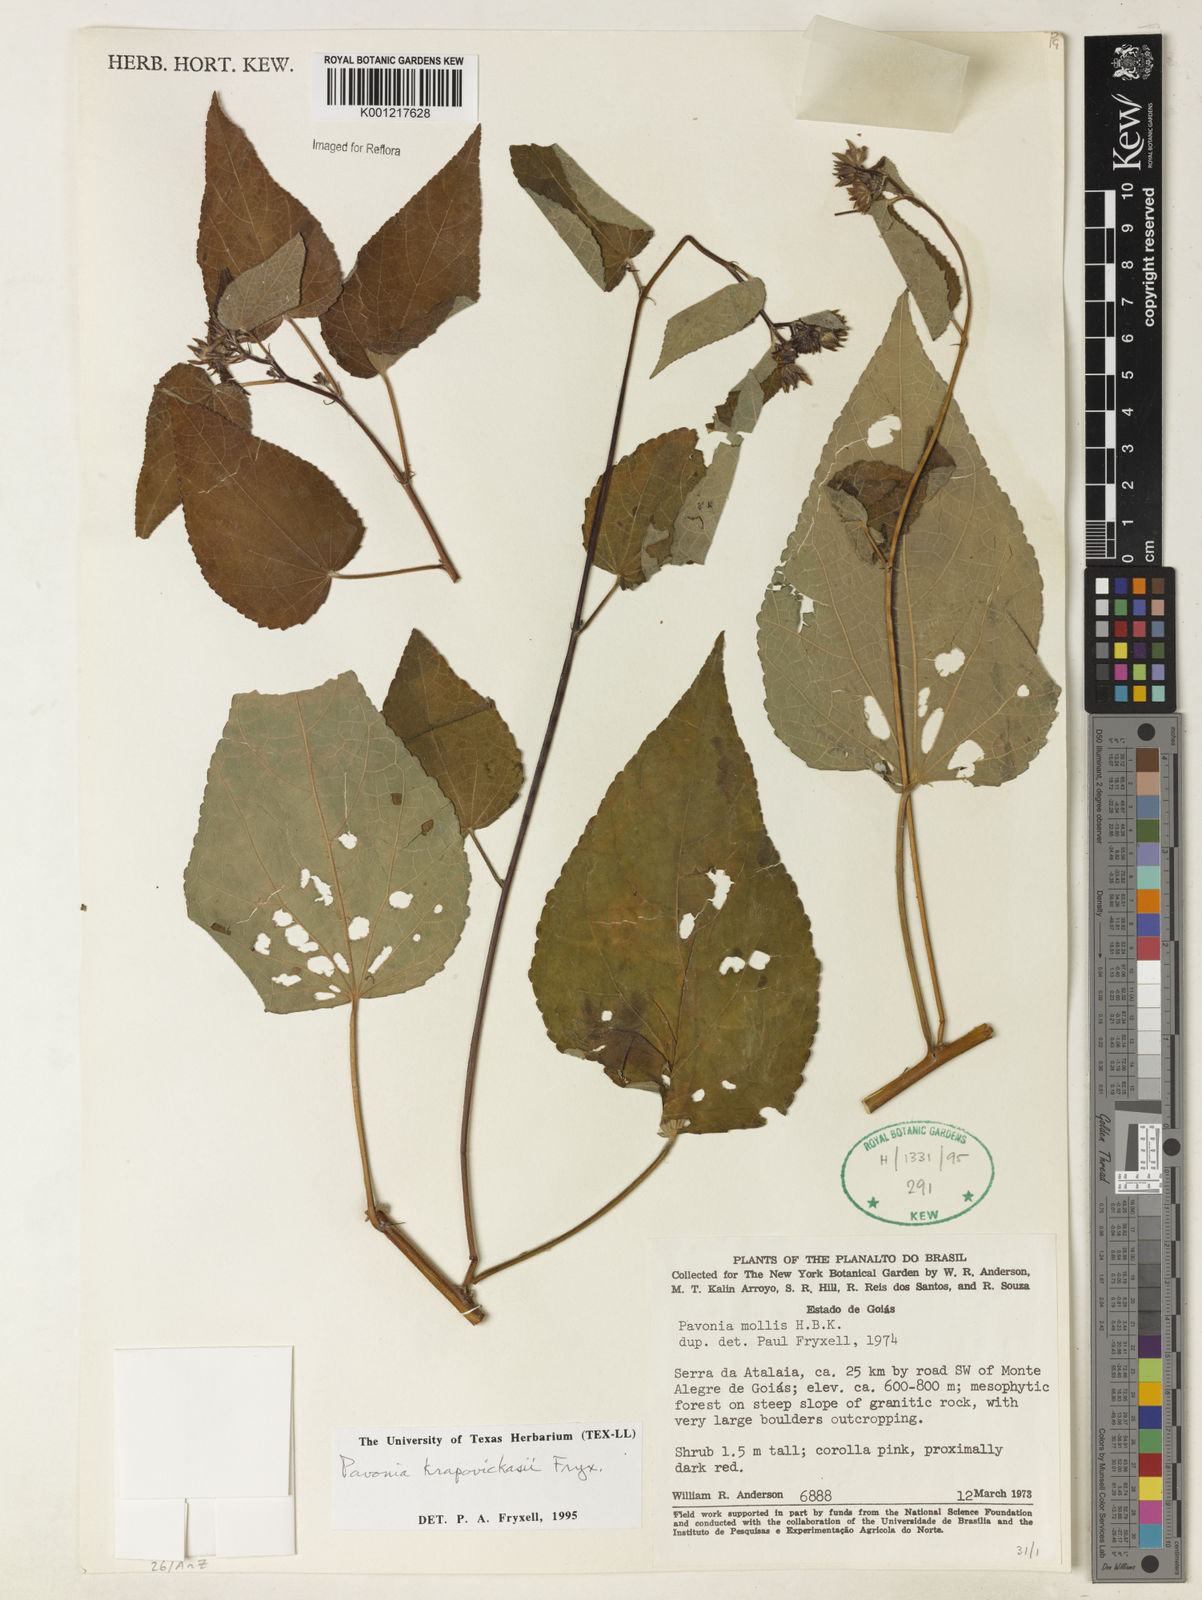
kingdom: Plantae
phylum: Tracheophyta
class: Magnoliopsida
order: Malvales
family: Malvaceae
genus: Pavonia
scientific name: Pavonia krapovickasii
